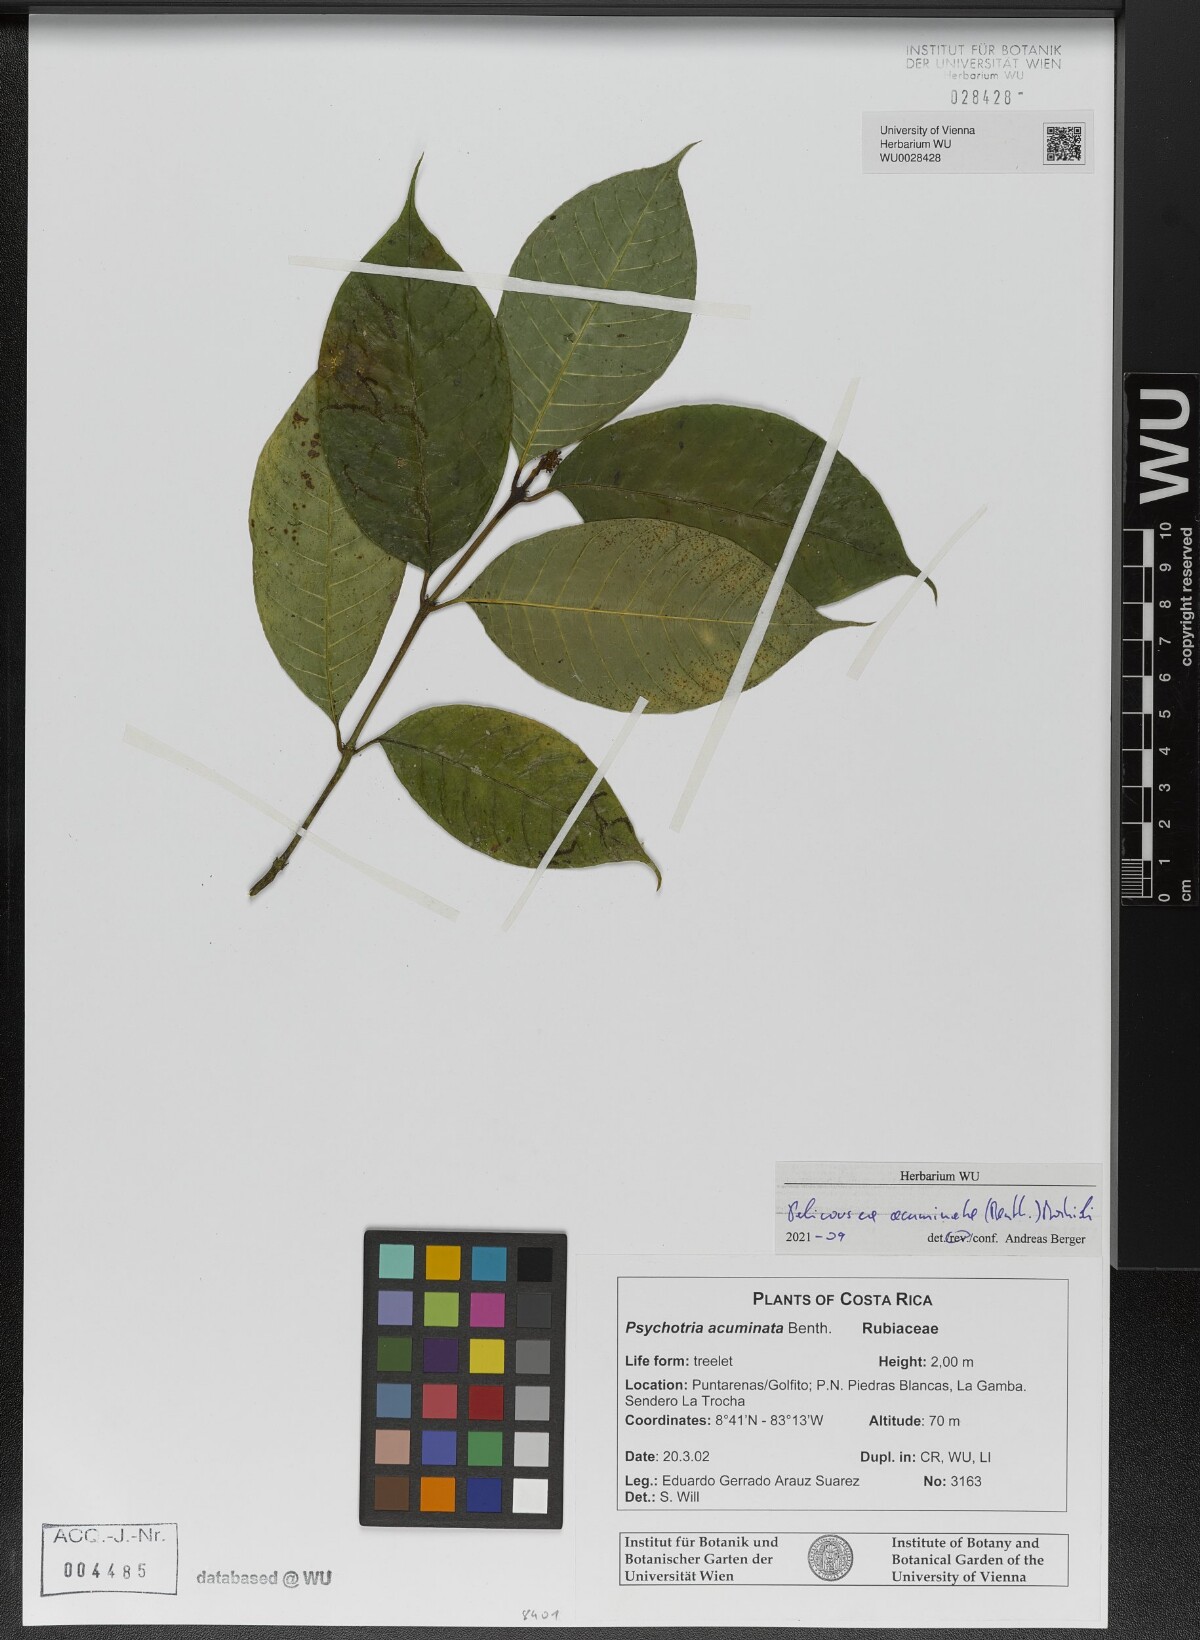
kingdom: Plantae
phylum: Tracheophyta
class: Magnoliopsida
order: Gentianales
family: Rubiaceae
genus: Palicourea
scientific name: Palicourea acuminata
